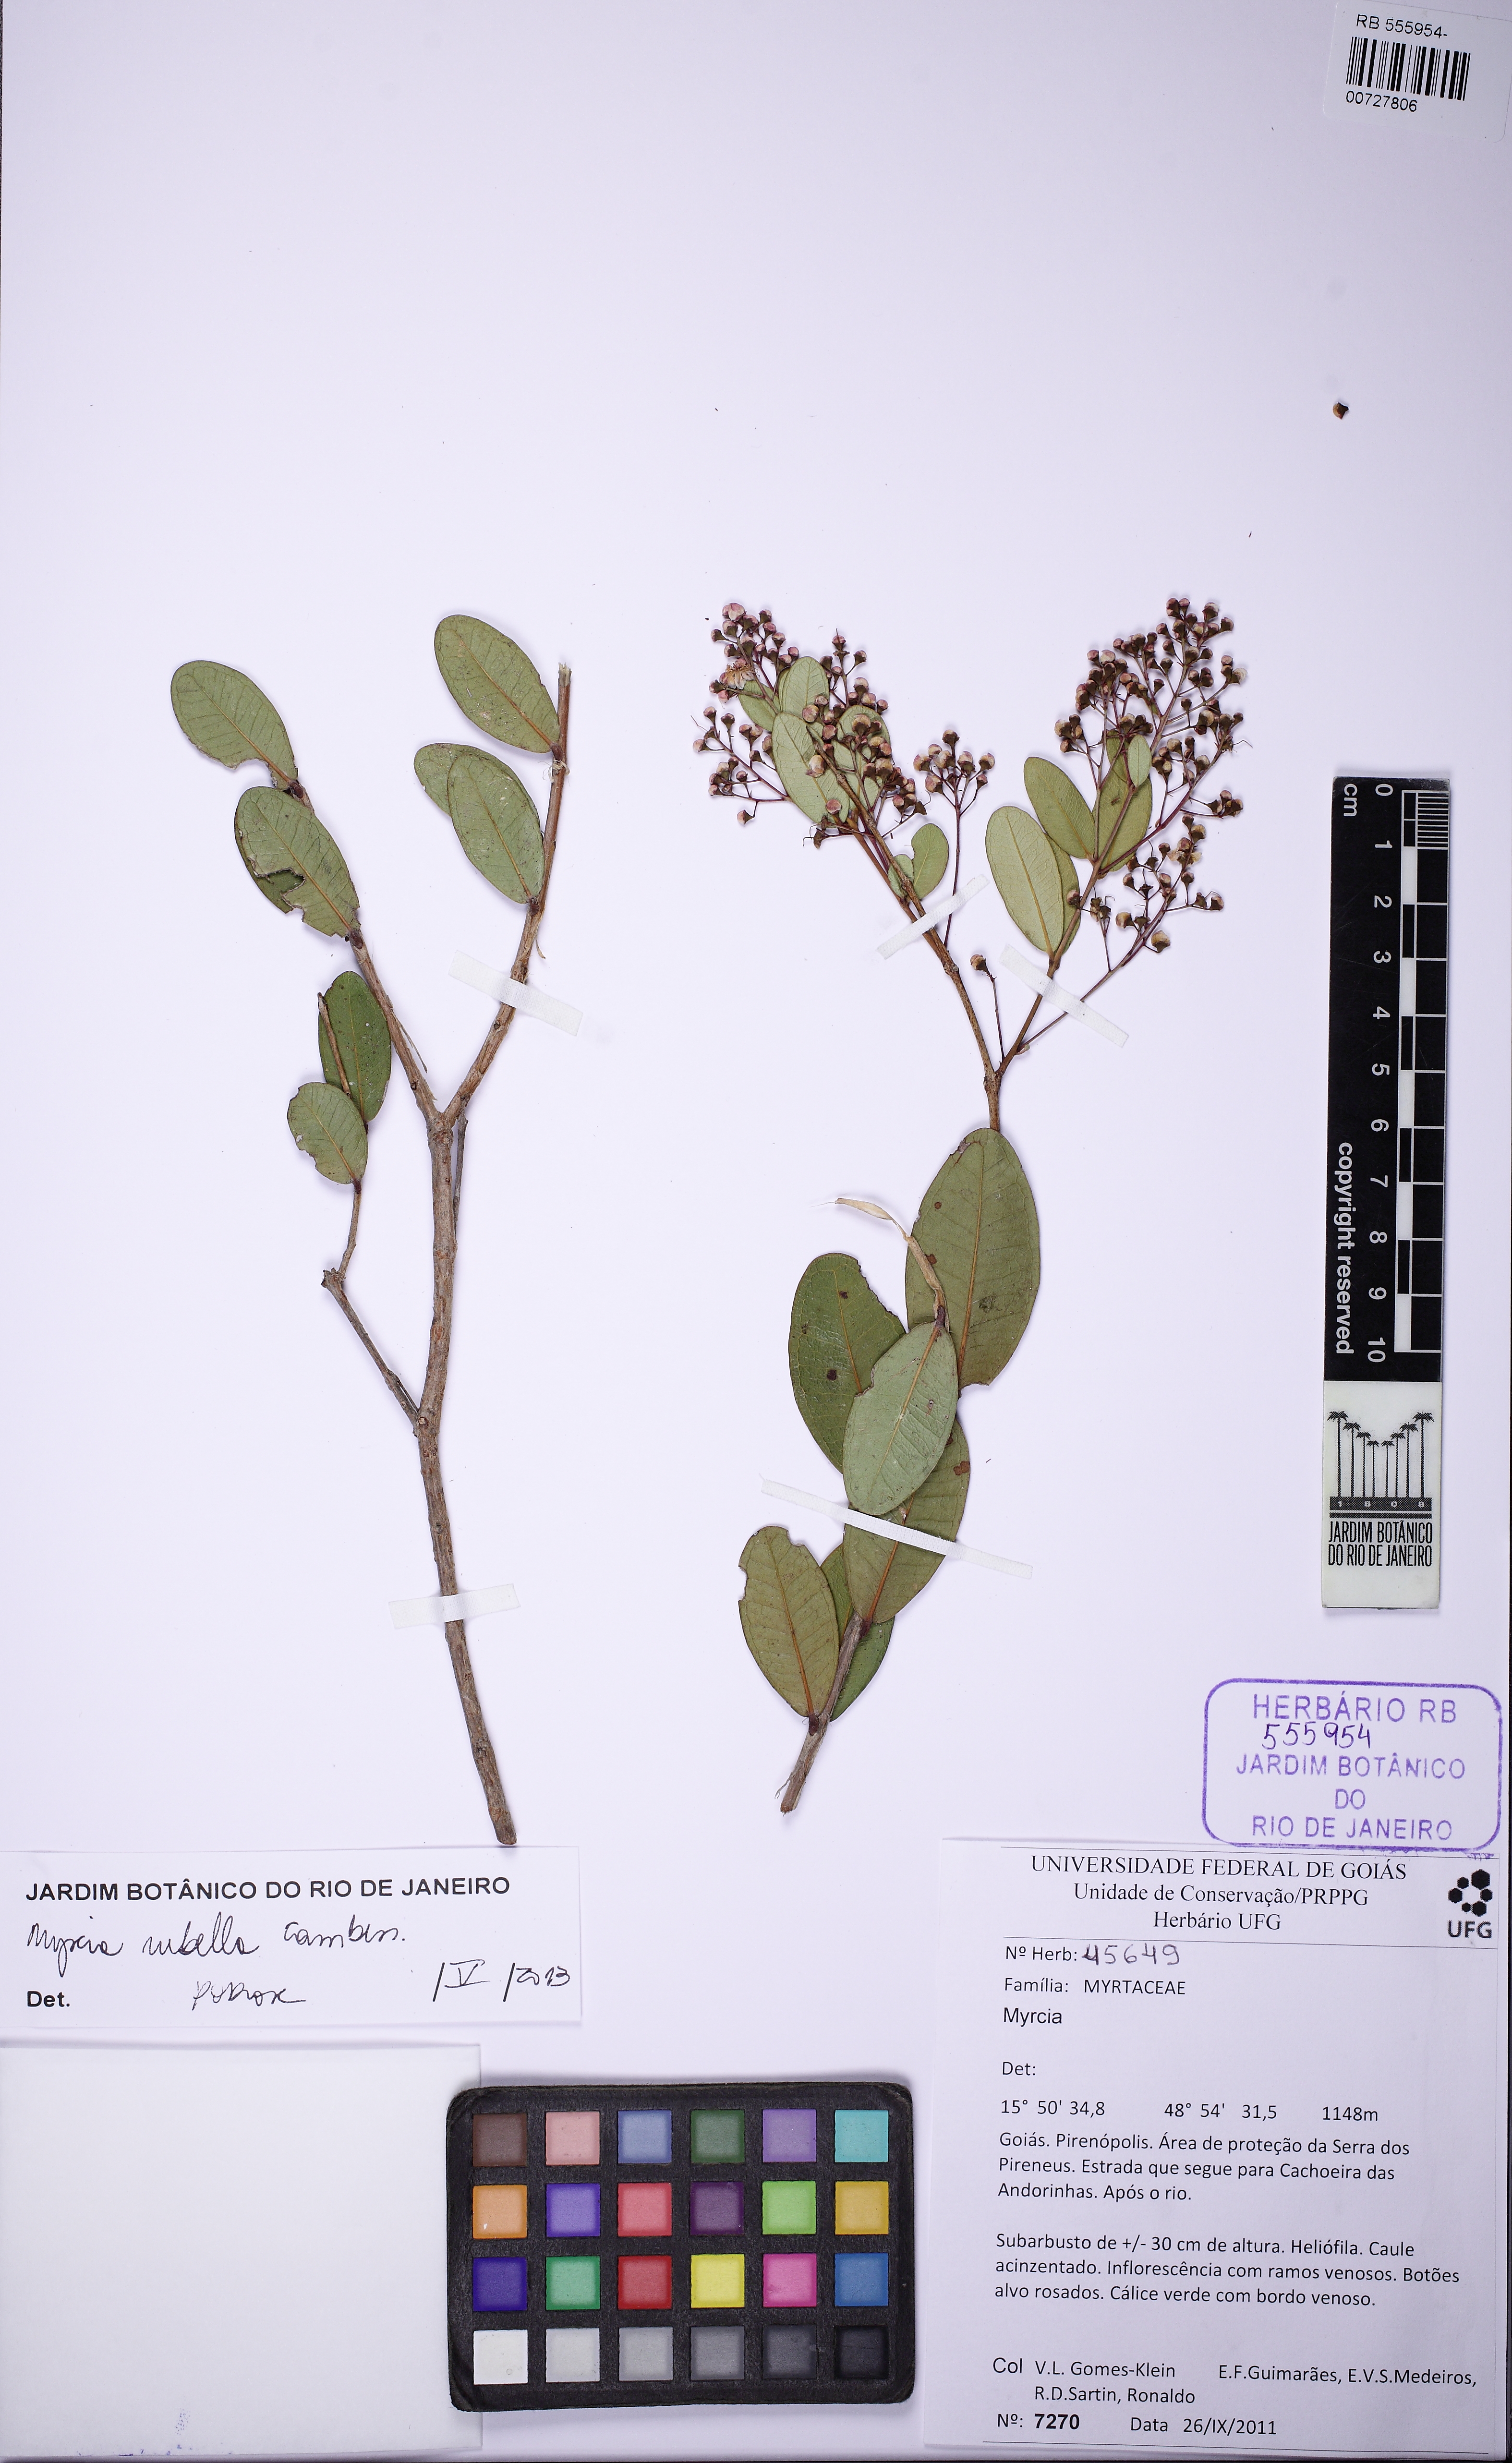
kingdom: Plantae
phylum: Tracheophyta
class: Magnoliopsida
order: Myrtales
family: Myrtaceae
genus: Myrcia
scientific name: Myrcia rubella
